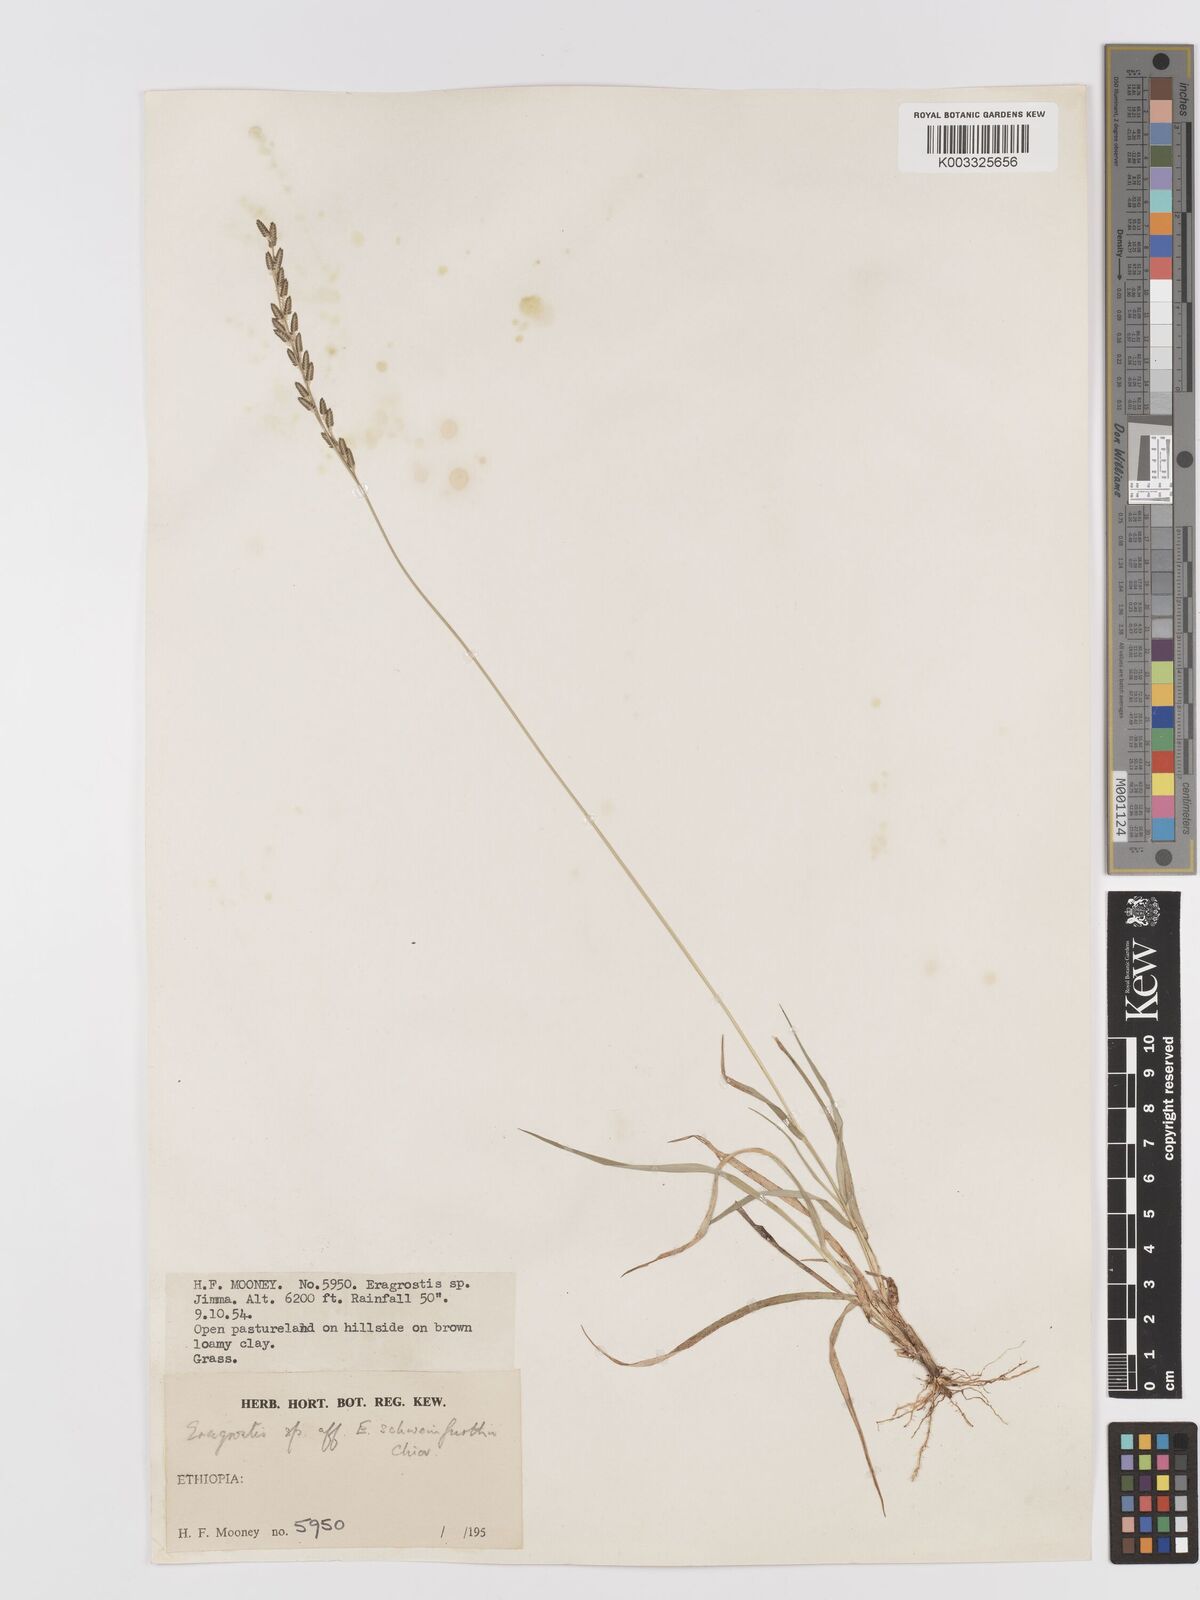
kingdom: Plantae
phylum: Tracheophyta
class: Liliopsida
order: Poales
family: Poaceae
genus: Eragrostis
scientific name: Eragrostis schweinfurthii
